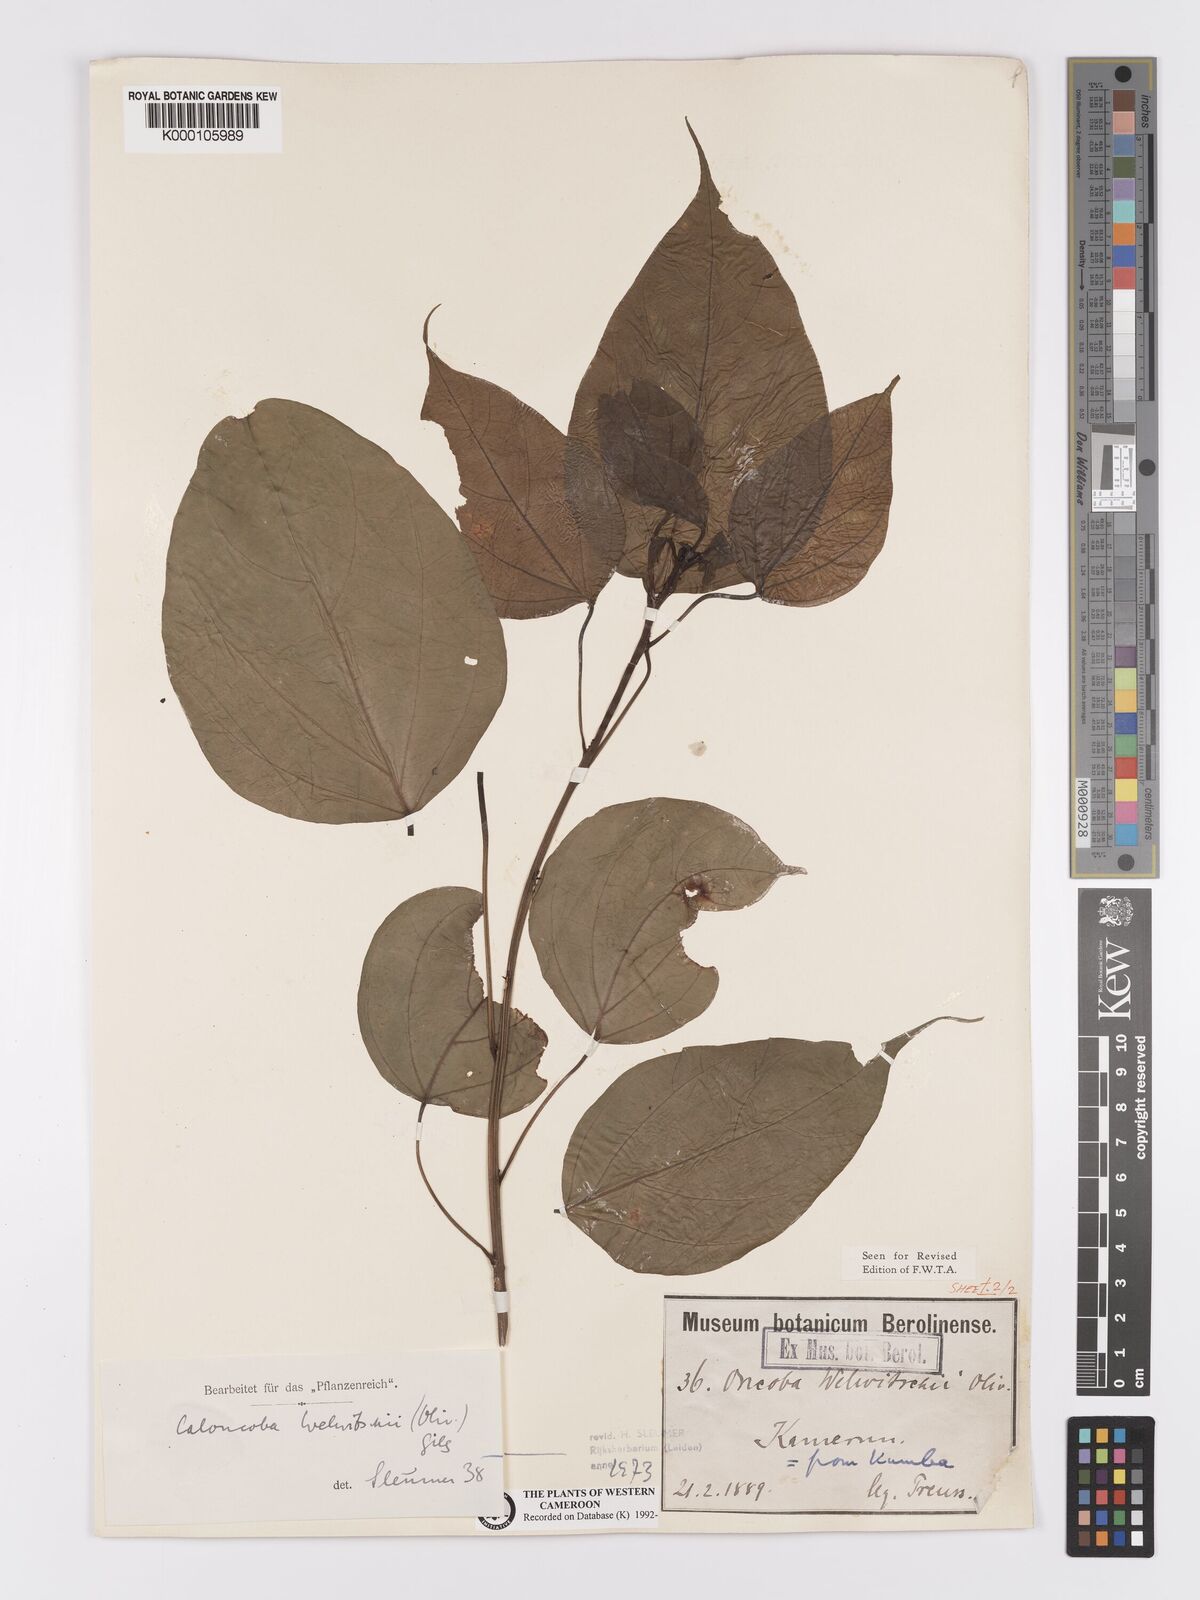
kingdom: Plantae
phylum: Tracheophyta
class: Magnoliopsida
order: Malpighiales
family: Achariaceae
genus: Caloncoba
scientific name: Caloncoba welwitschii
